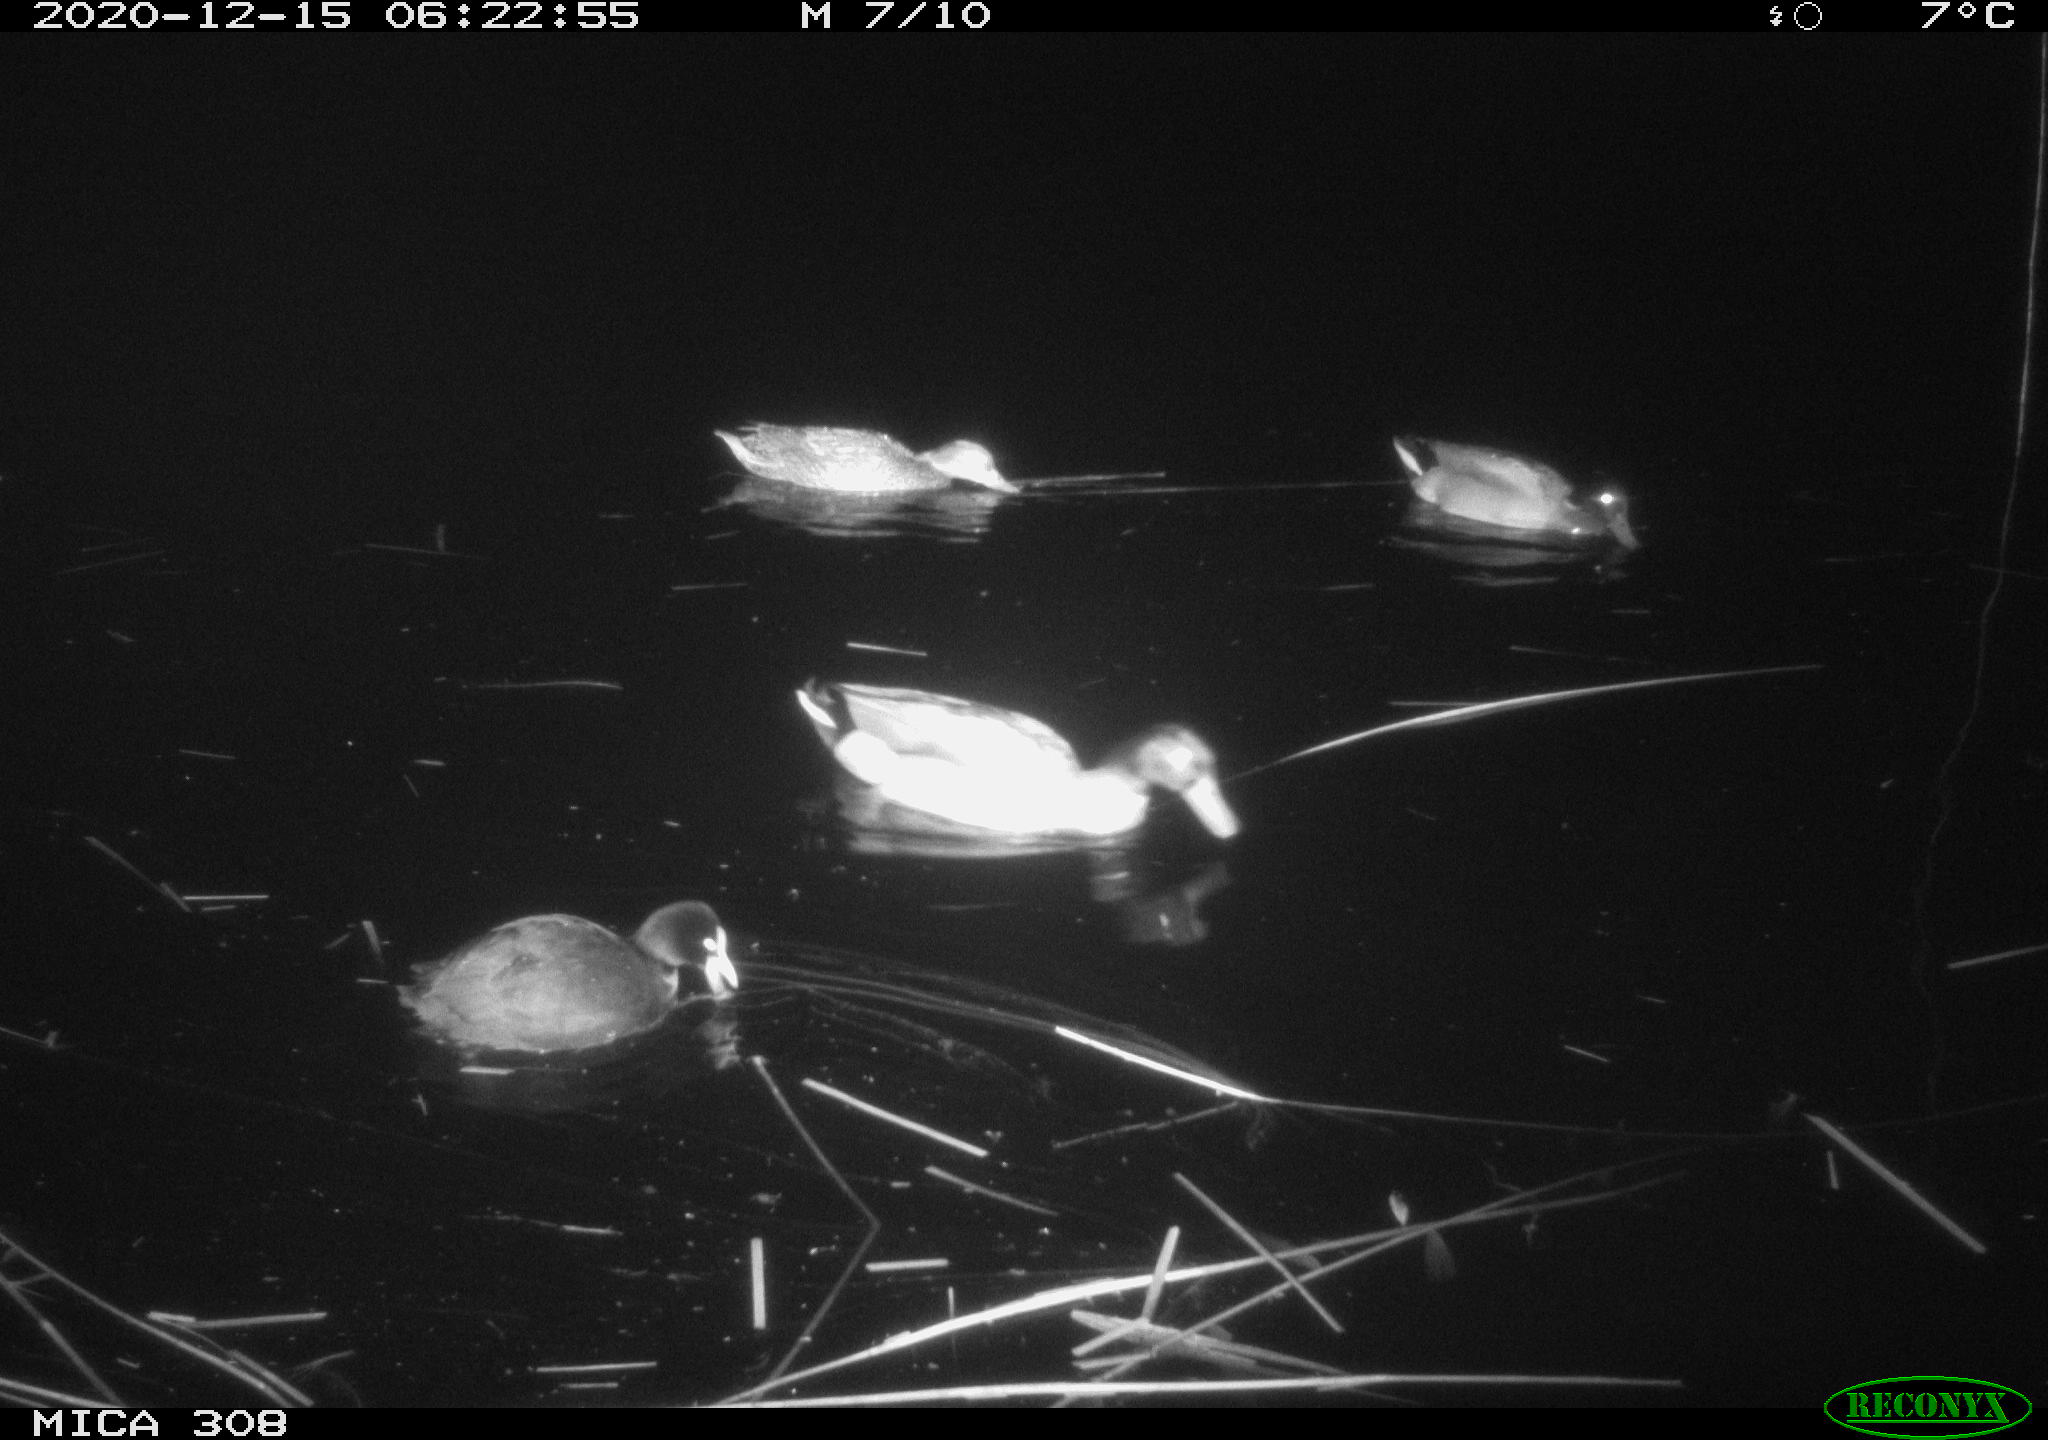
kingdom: Animalia
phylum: Chordata
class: Aves
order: Anseriformes
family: Anatidae
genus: Anas
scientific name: Anas platyrhynchos
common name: Mallard
